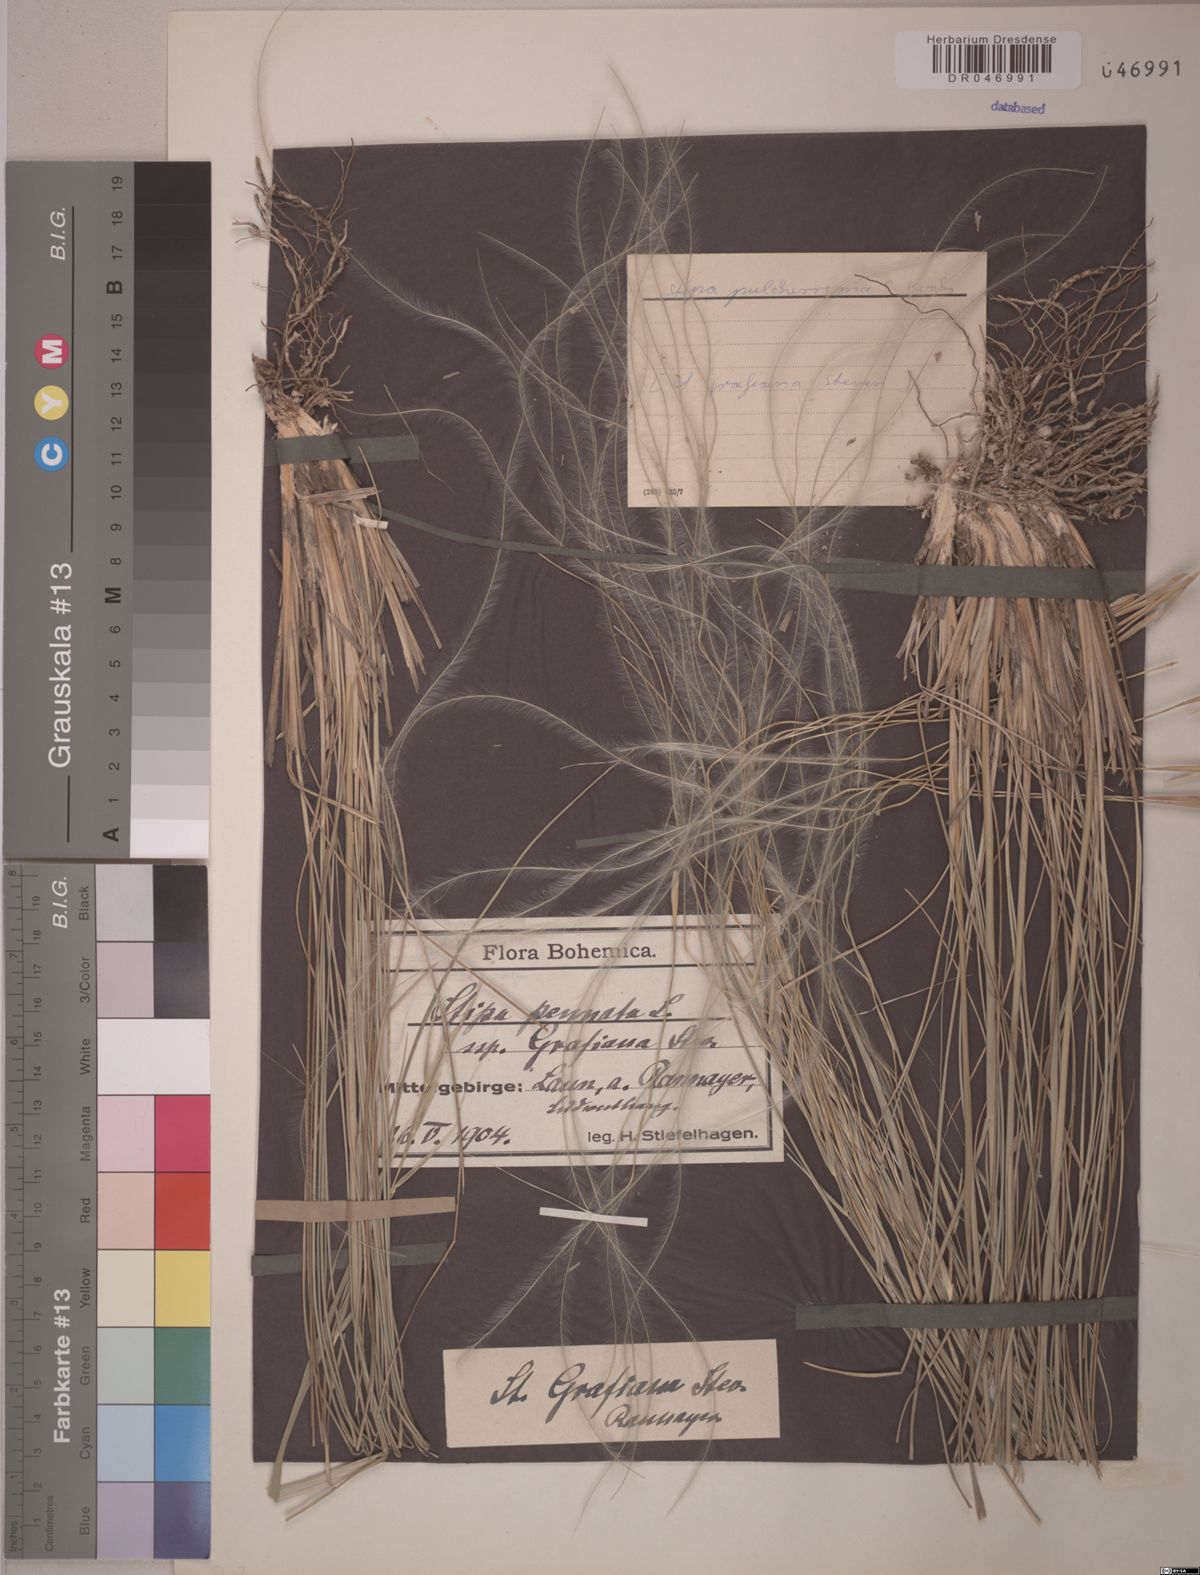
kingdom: Plantae
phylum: Tracheophyta
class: Liliopsida
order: Poales
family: Poaceae
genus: Stipa
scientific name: Stipa pulcherrima
